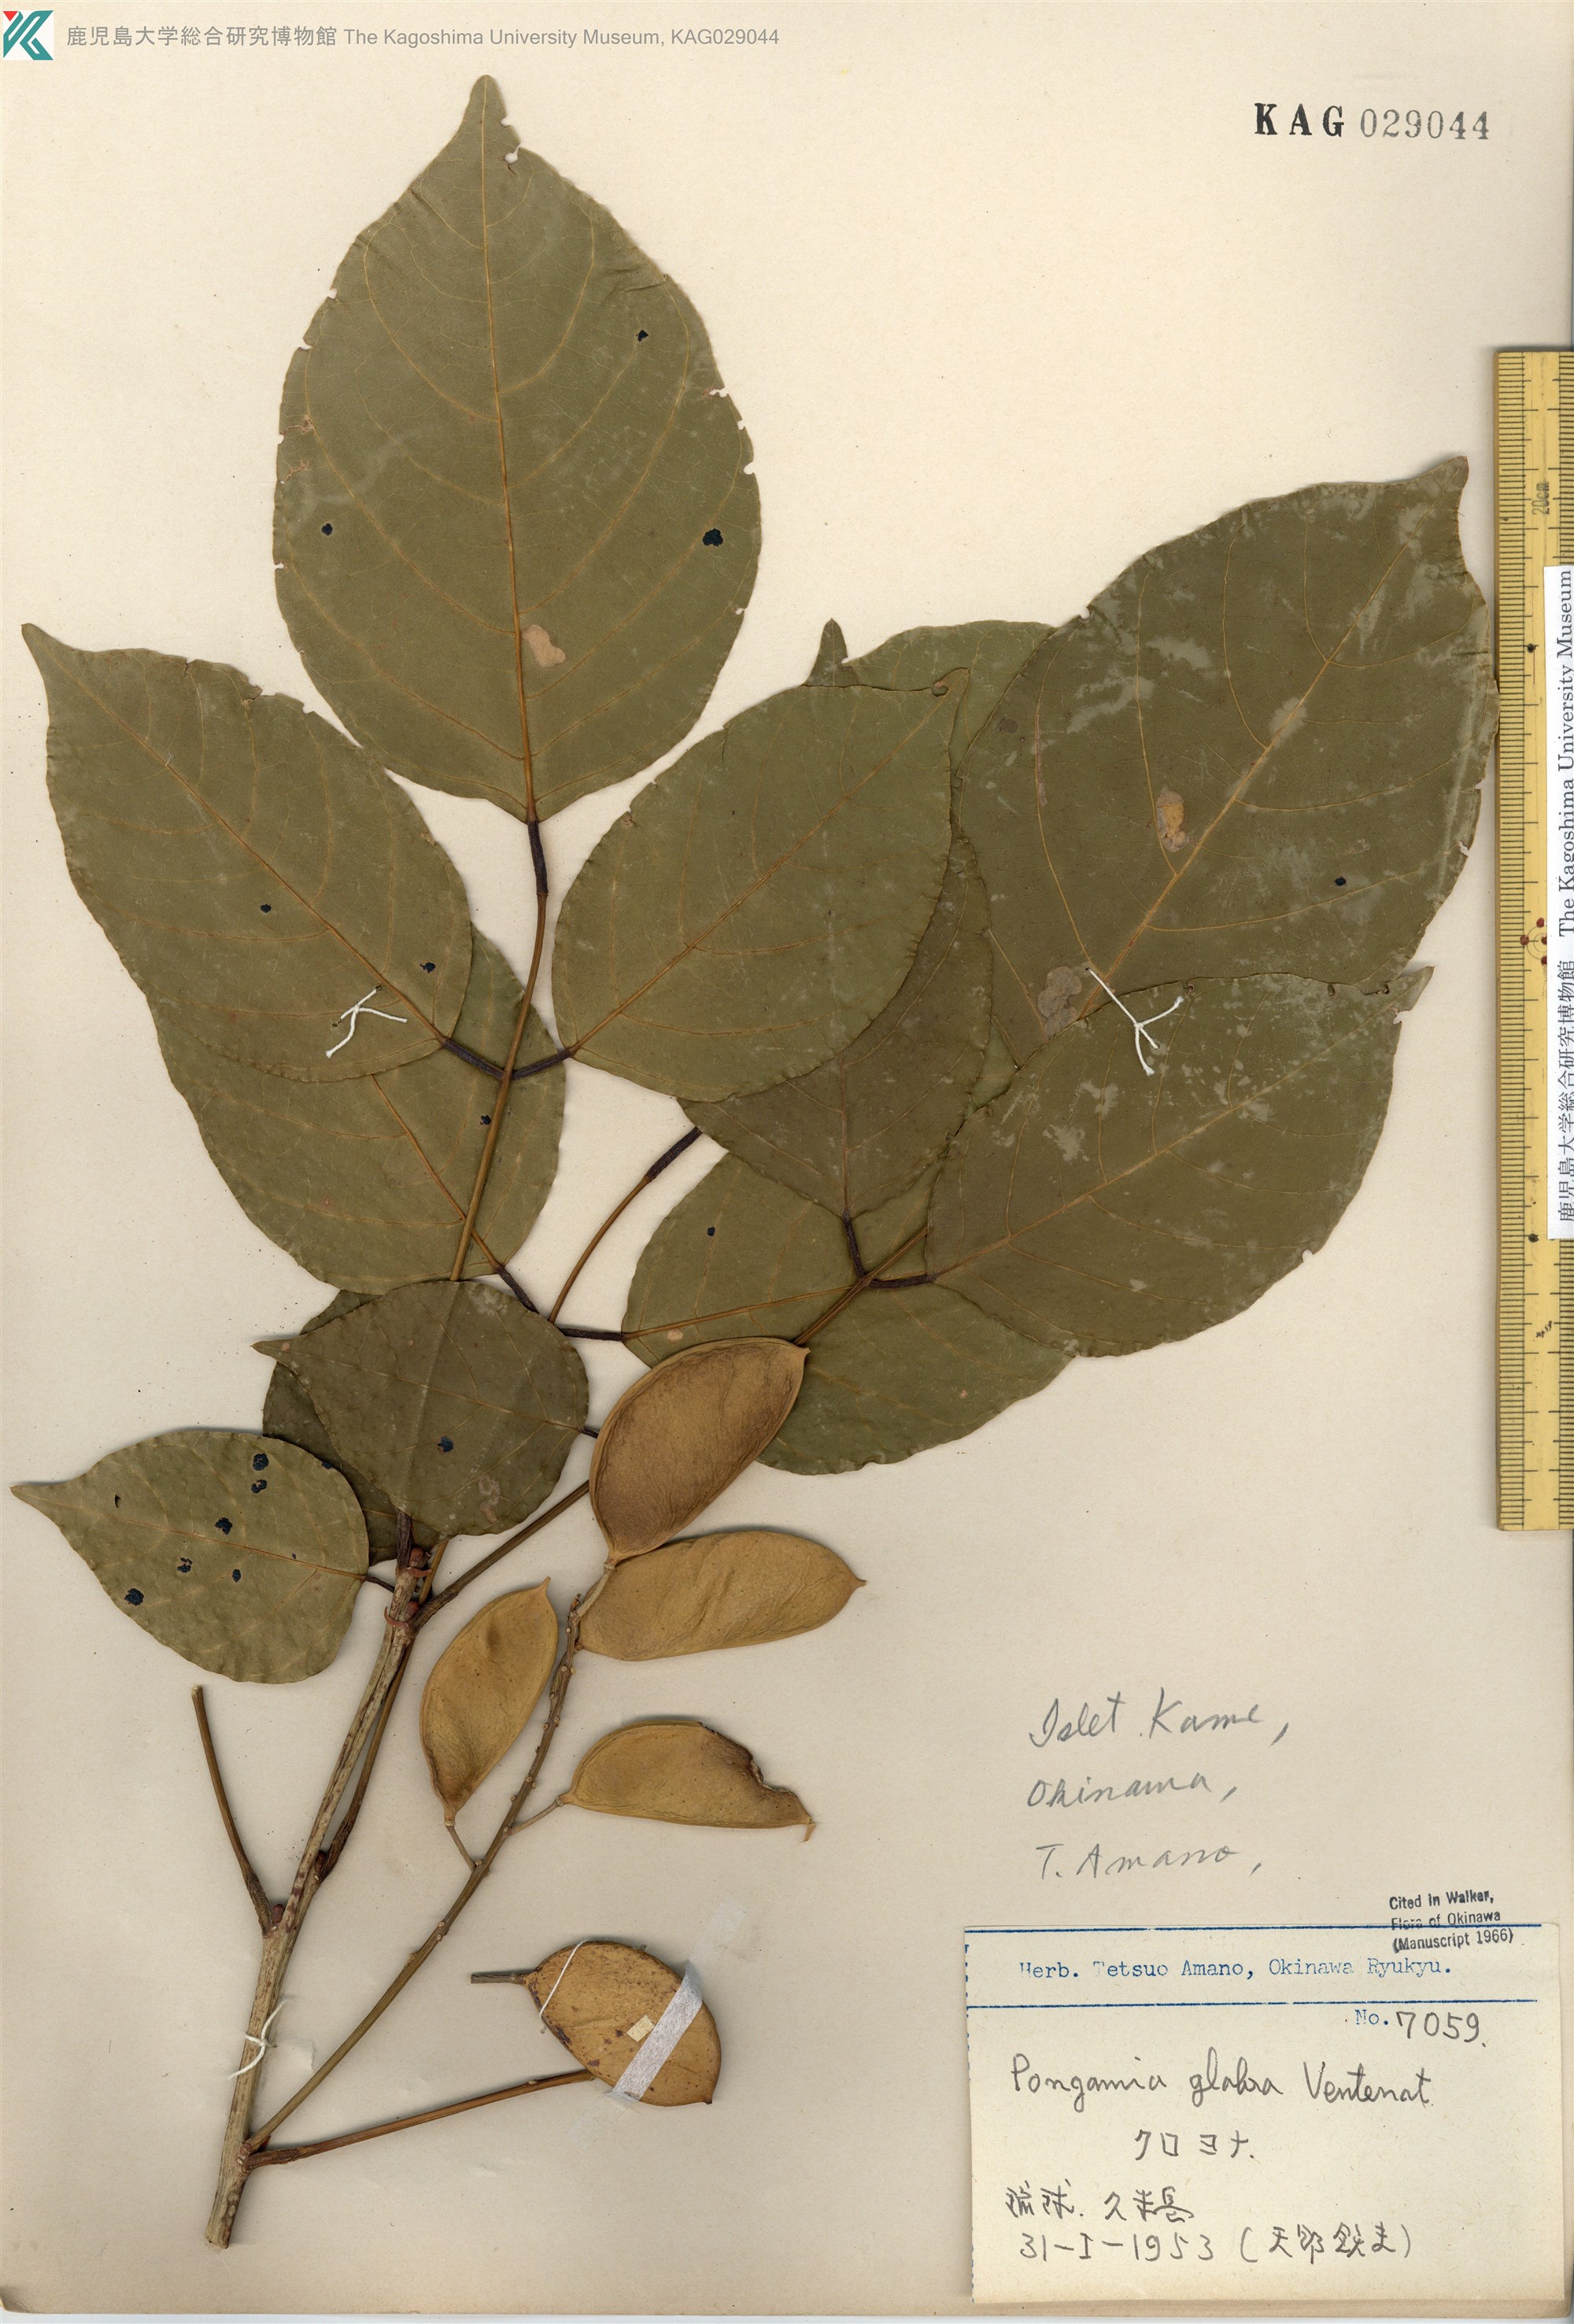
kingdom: Plantae
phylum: Tracheophyta
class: Magnoliopsida
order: Fabales
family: Fabaceae
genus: Pongamia
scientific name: Pongamia pinnata
